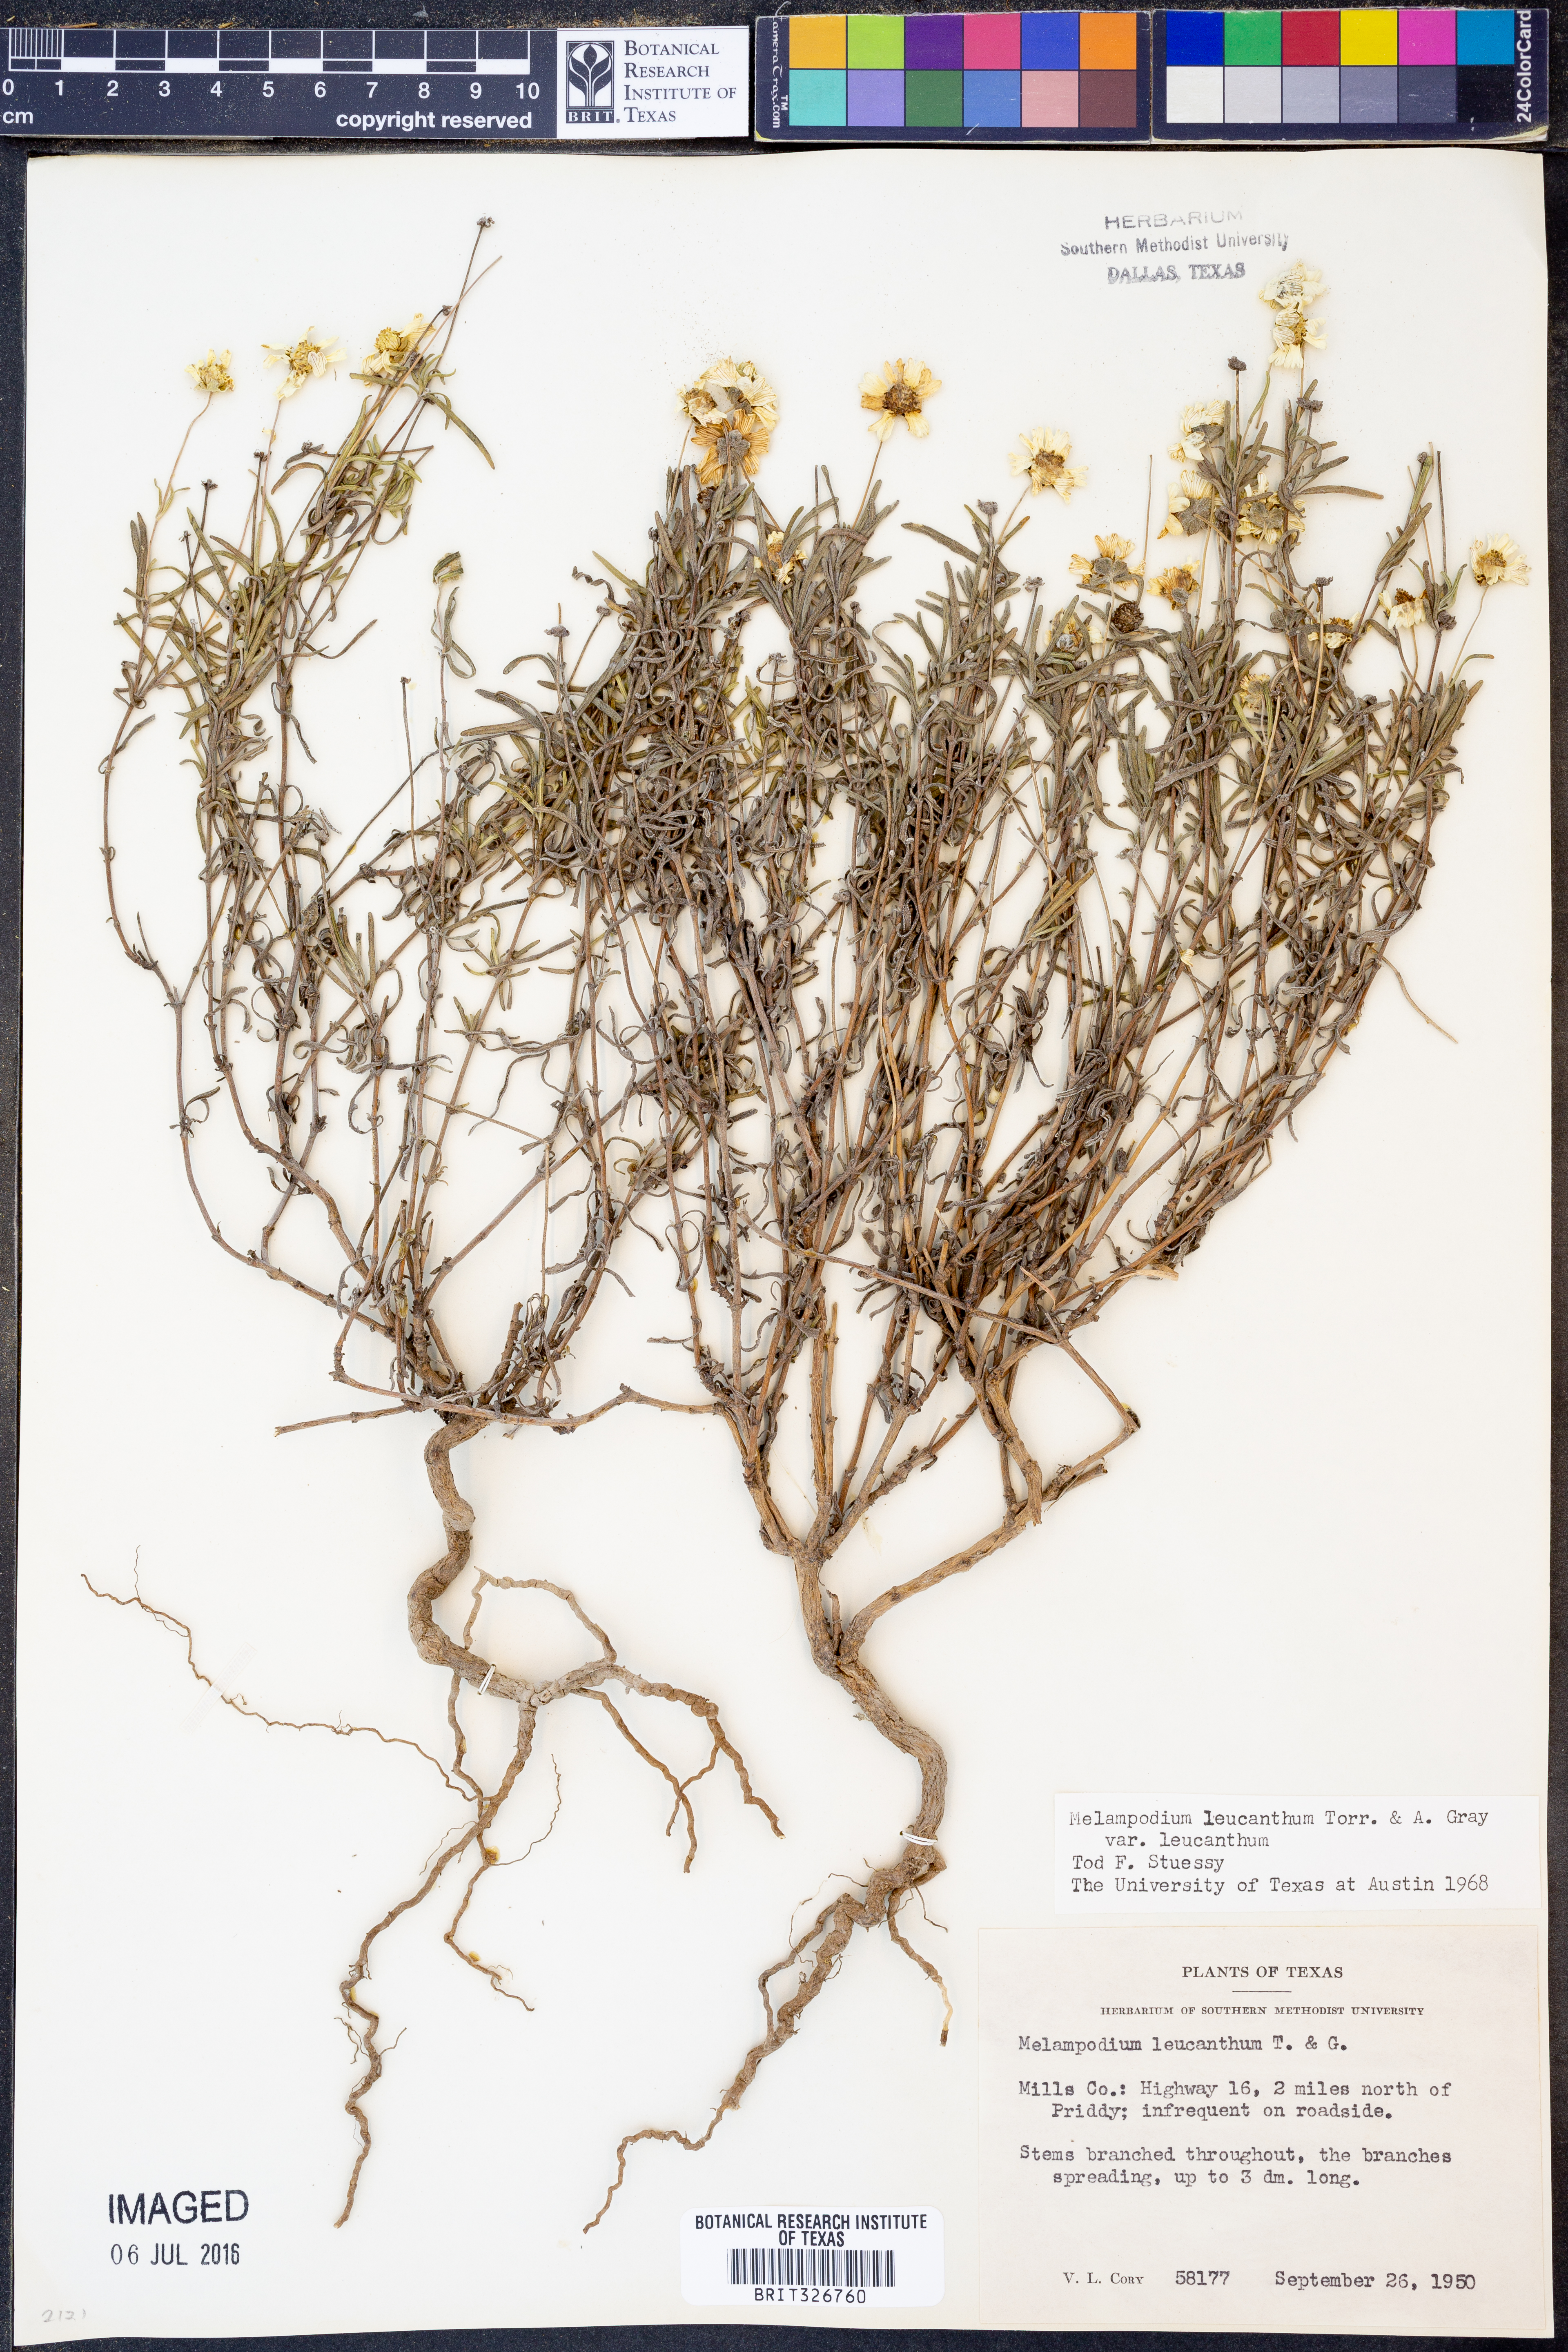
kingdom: Plantae
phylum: Tracheophyta
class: Magnoliopsida
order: Asterales
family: Asteraceae
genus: Melampodium
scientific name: Melampodium leucanthum
